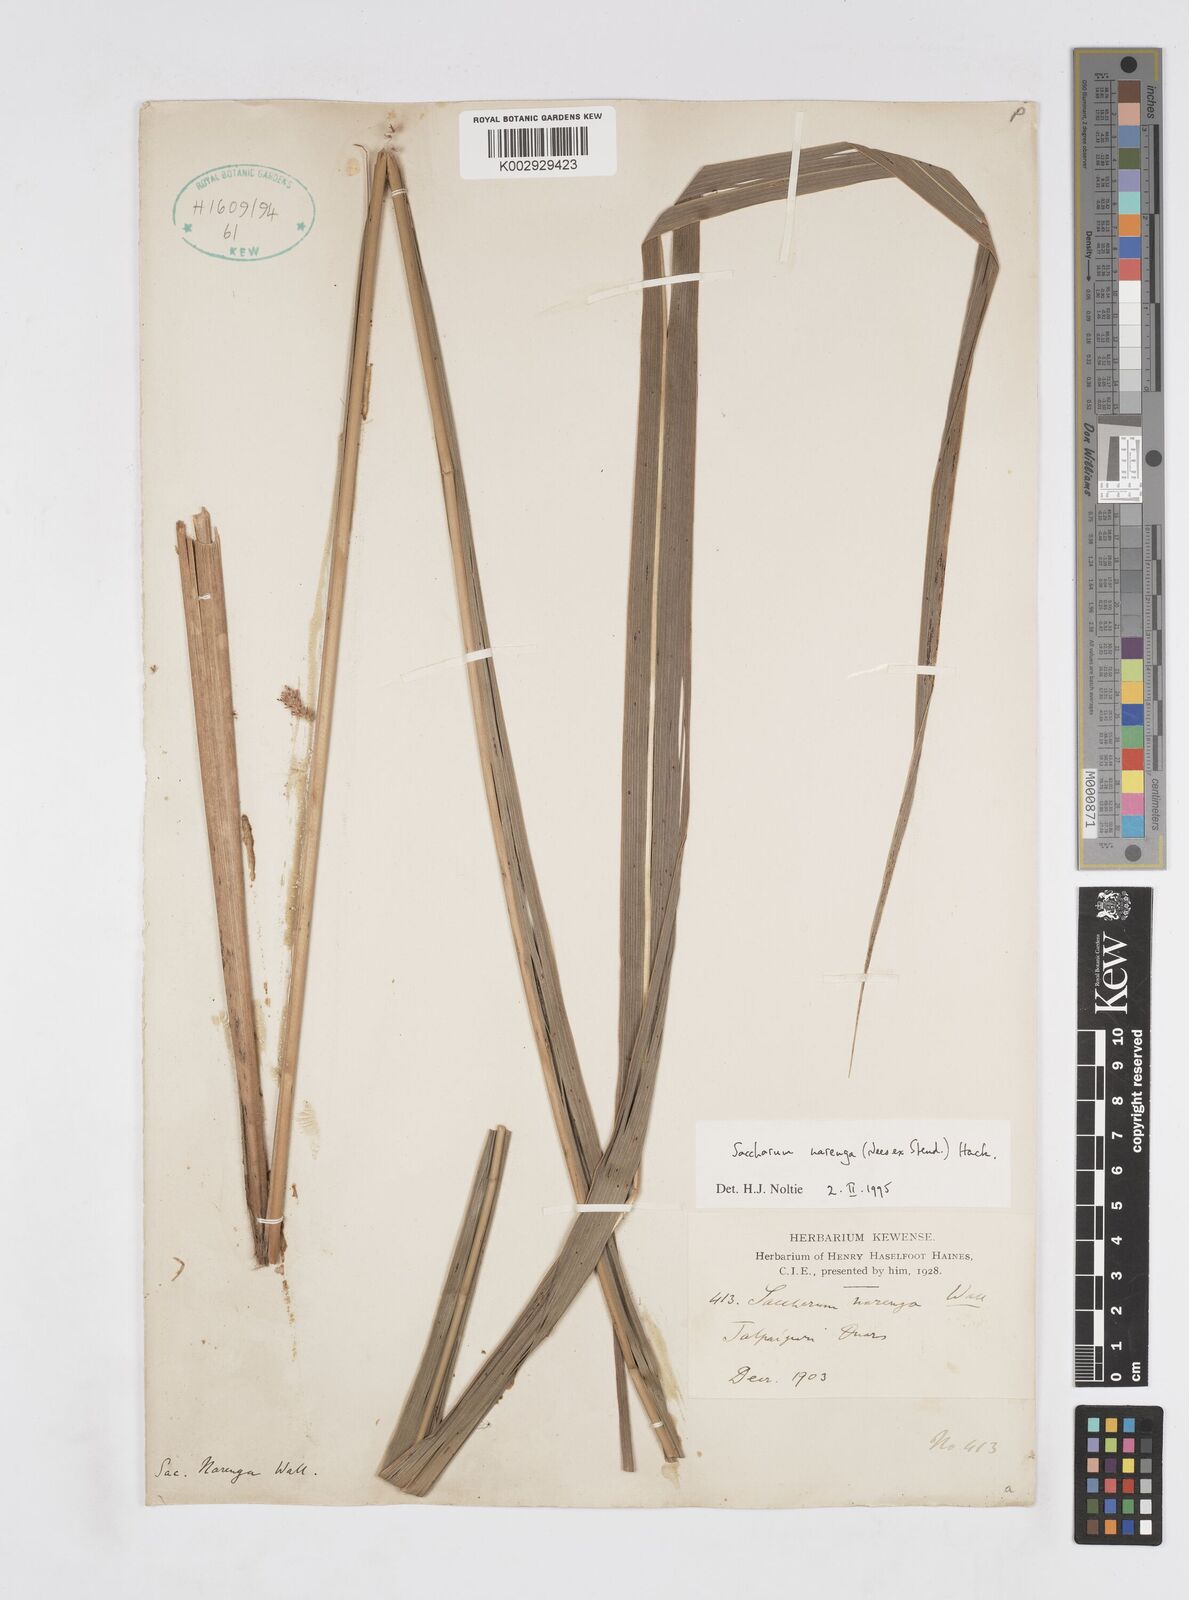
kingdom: Plantae
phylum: Tracheophyta
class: Liliopsida
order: Poales
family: Poaceae
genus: Narenga
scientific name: Narenga porphyrocoma
